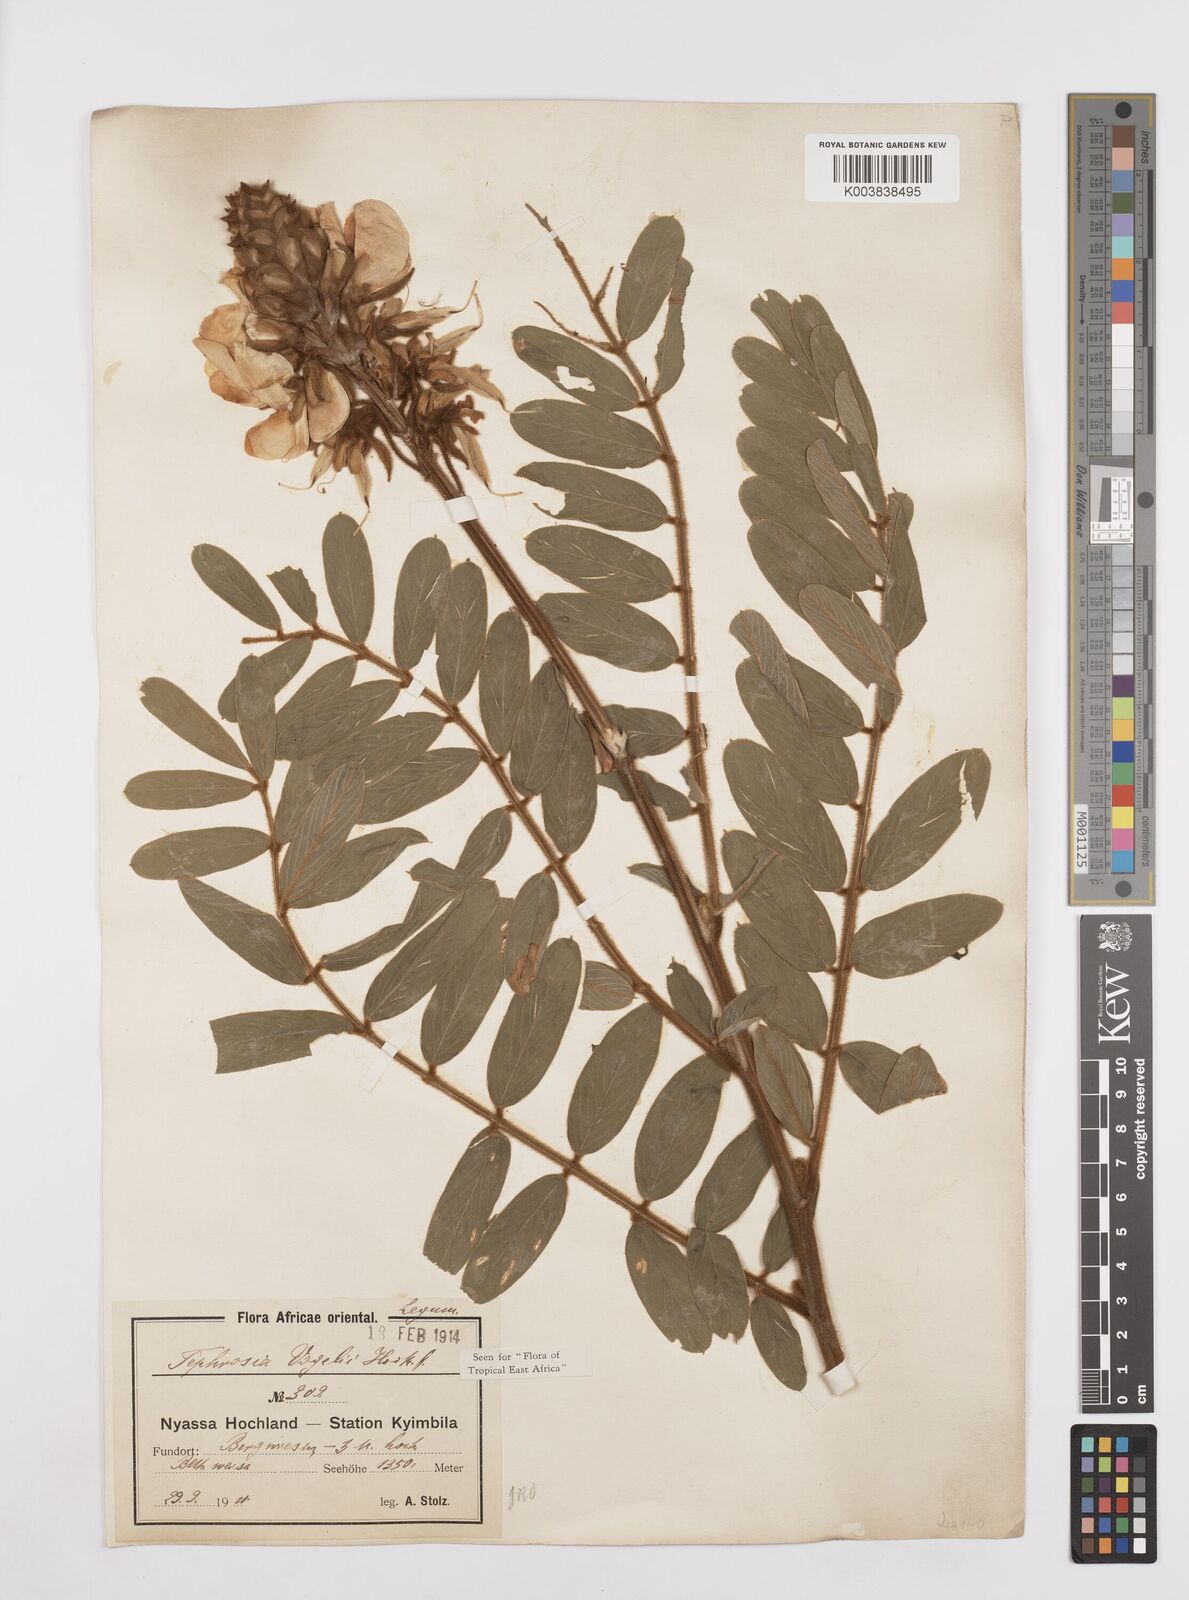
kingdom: Plantae
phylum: Tracheophyta
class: Magnoliopsida
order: Fabales
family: Fabaceae
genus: Tephrosia
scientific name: Tephrosia vogelii
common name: Vogel tephrosia
